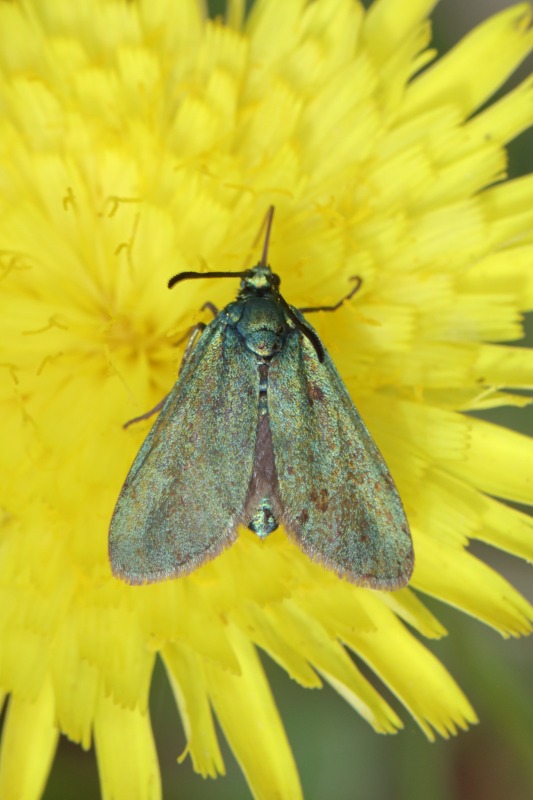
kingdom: Animalia
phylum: Arthropoda
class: Insecta
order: Lepidoptera
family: Zygaenidae
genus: Adscita
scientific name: Adscita statices
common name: Metalvinge
